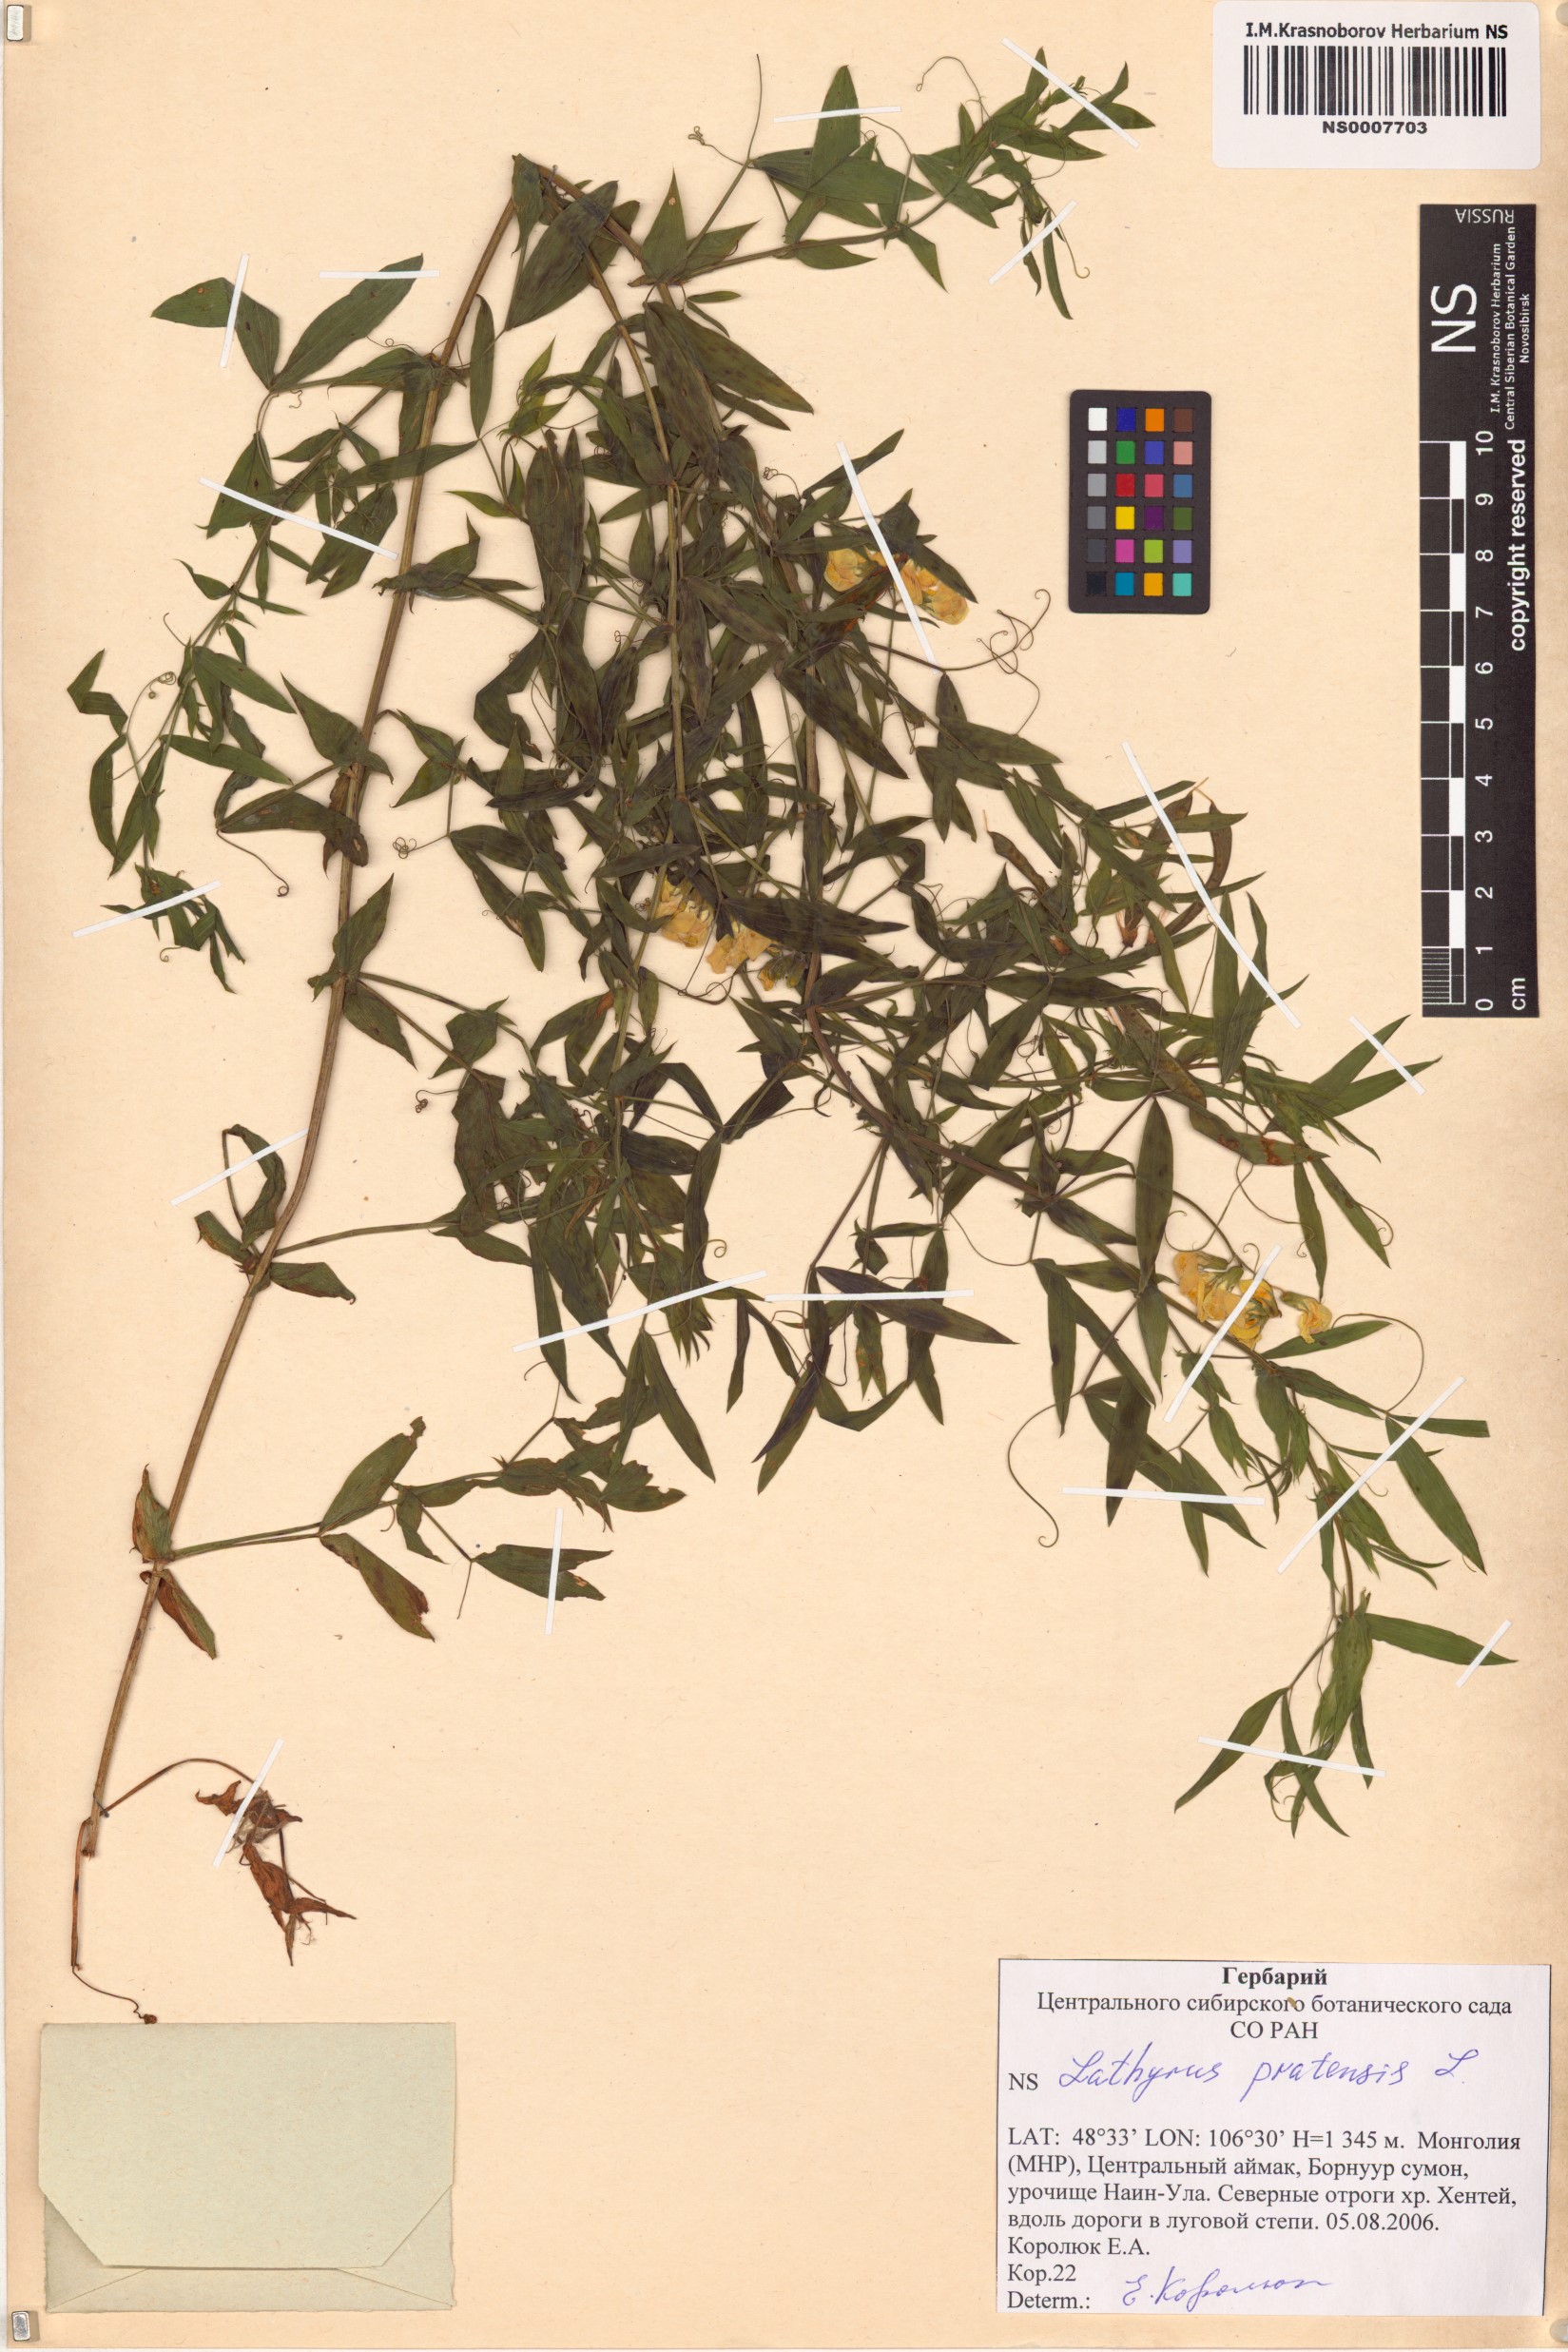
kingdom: Plantae
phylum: Tracheophyta
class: Magnoliopsida
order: Fabales
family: Fabaceae
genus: Lathyrus
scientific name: Lathyrus pratensis
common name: Meadow vetchling
